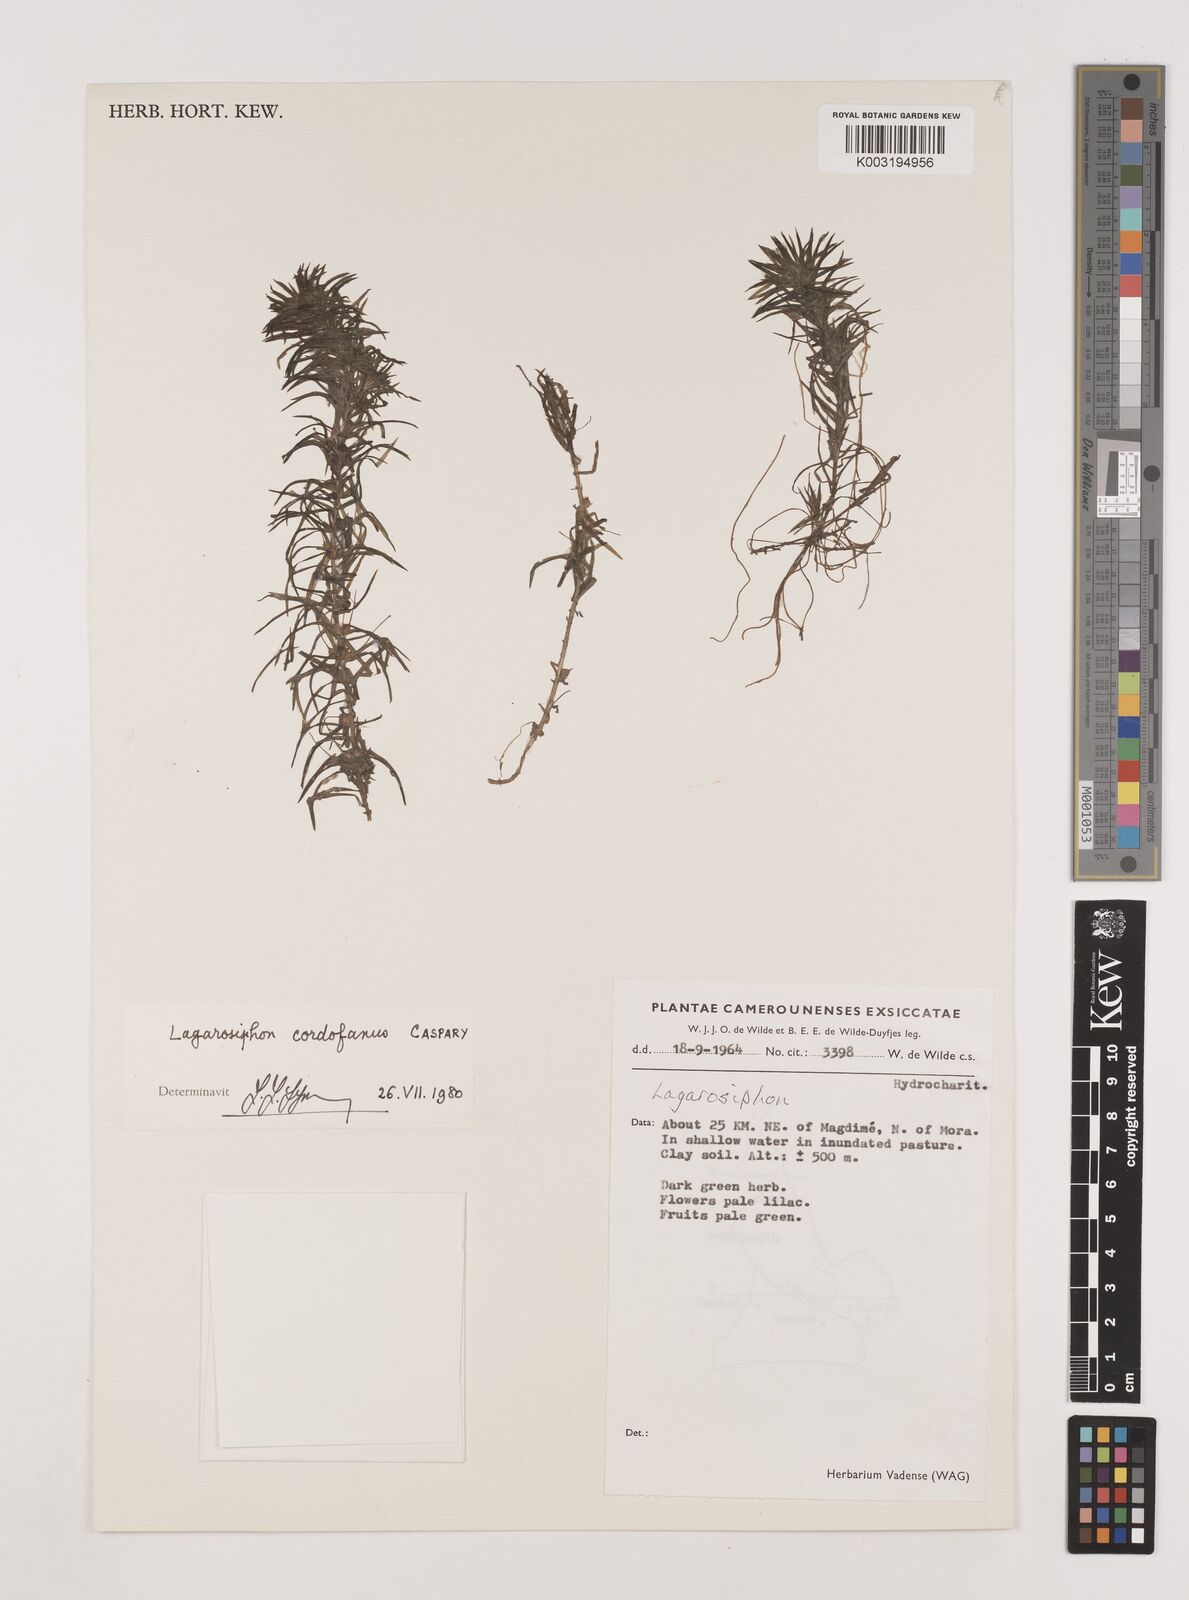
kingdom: Plantae
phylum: Tracheophyta
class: Liliopsida
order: Alismatales
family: Hydrocharitaceae
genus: Lagarosiphon
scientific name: Lagarosiphon cordofanus
